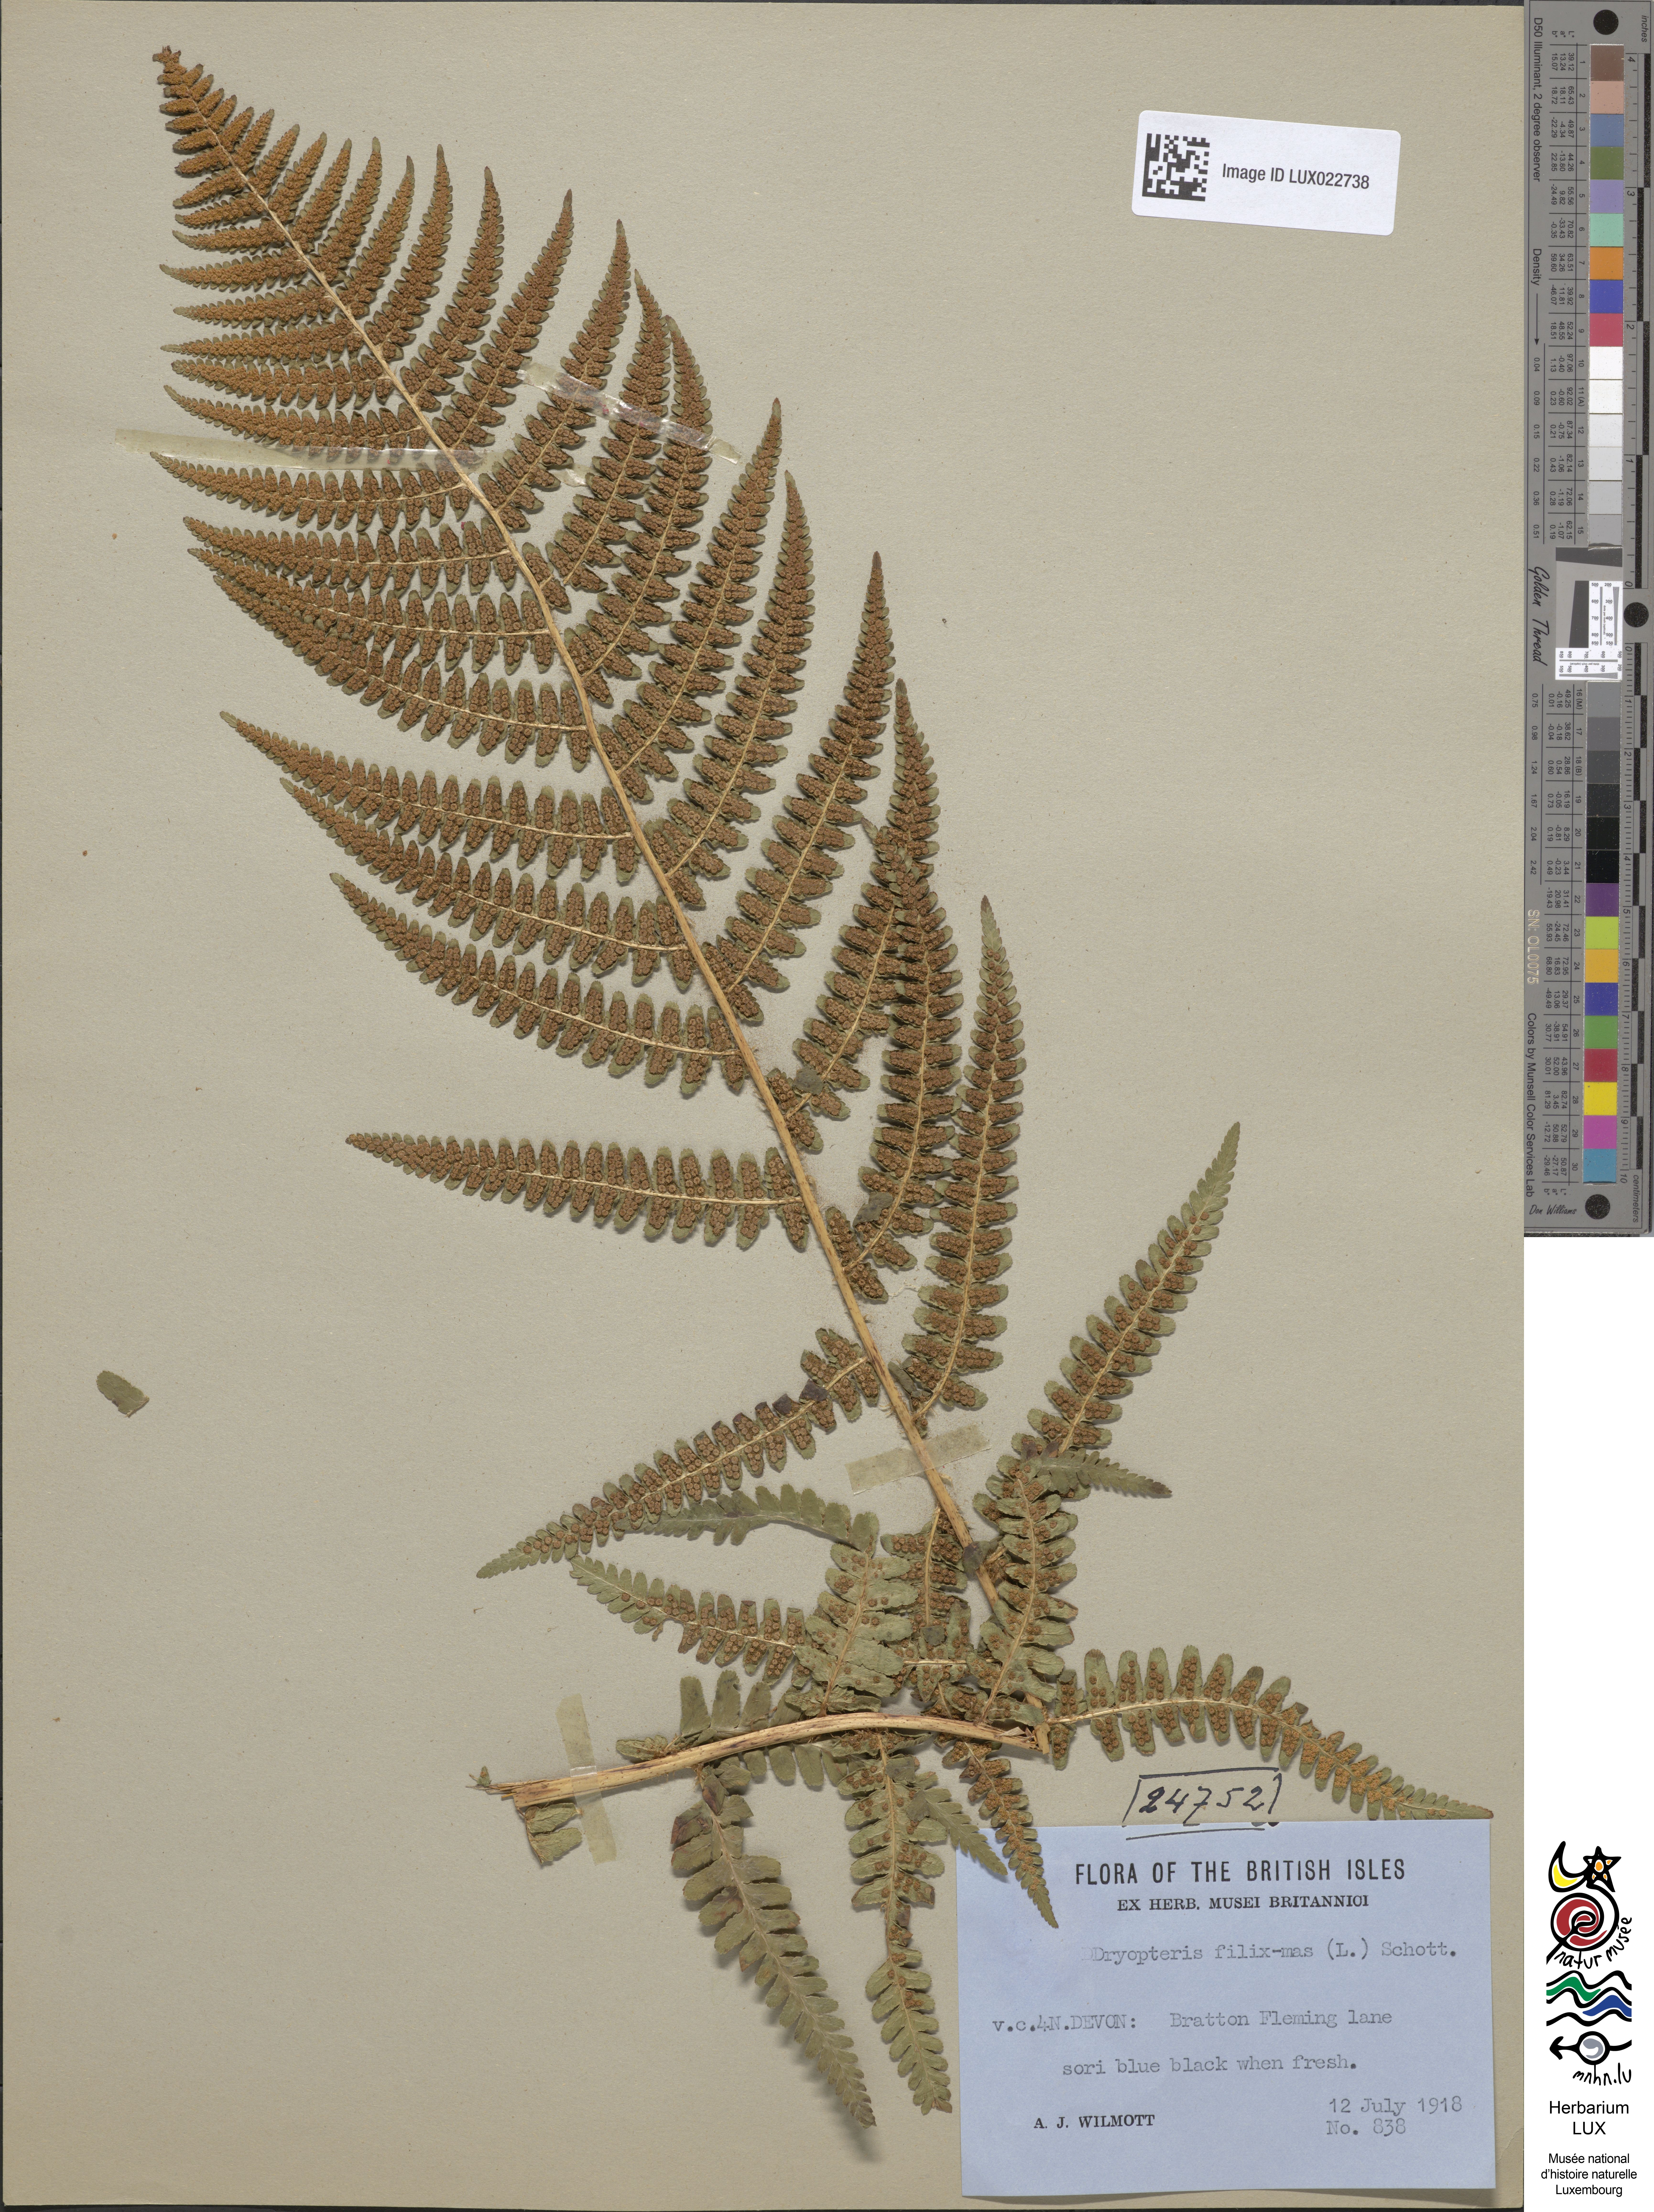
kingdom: Plantae
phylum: Tracheophyta
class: Polypodiopsida
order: Polypodiales
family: Dryopteridaceae
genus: Dryopteris
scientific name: Dryopteris filix-mas
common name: Male fern
